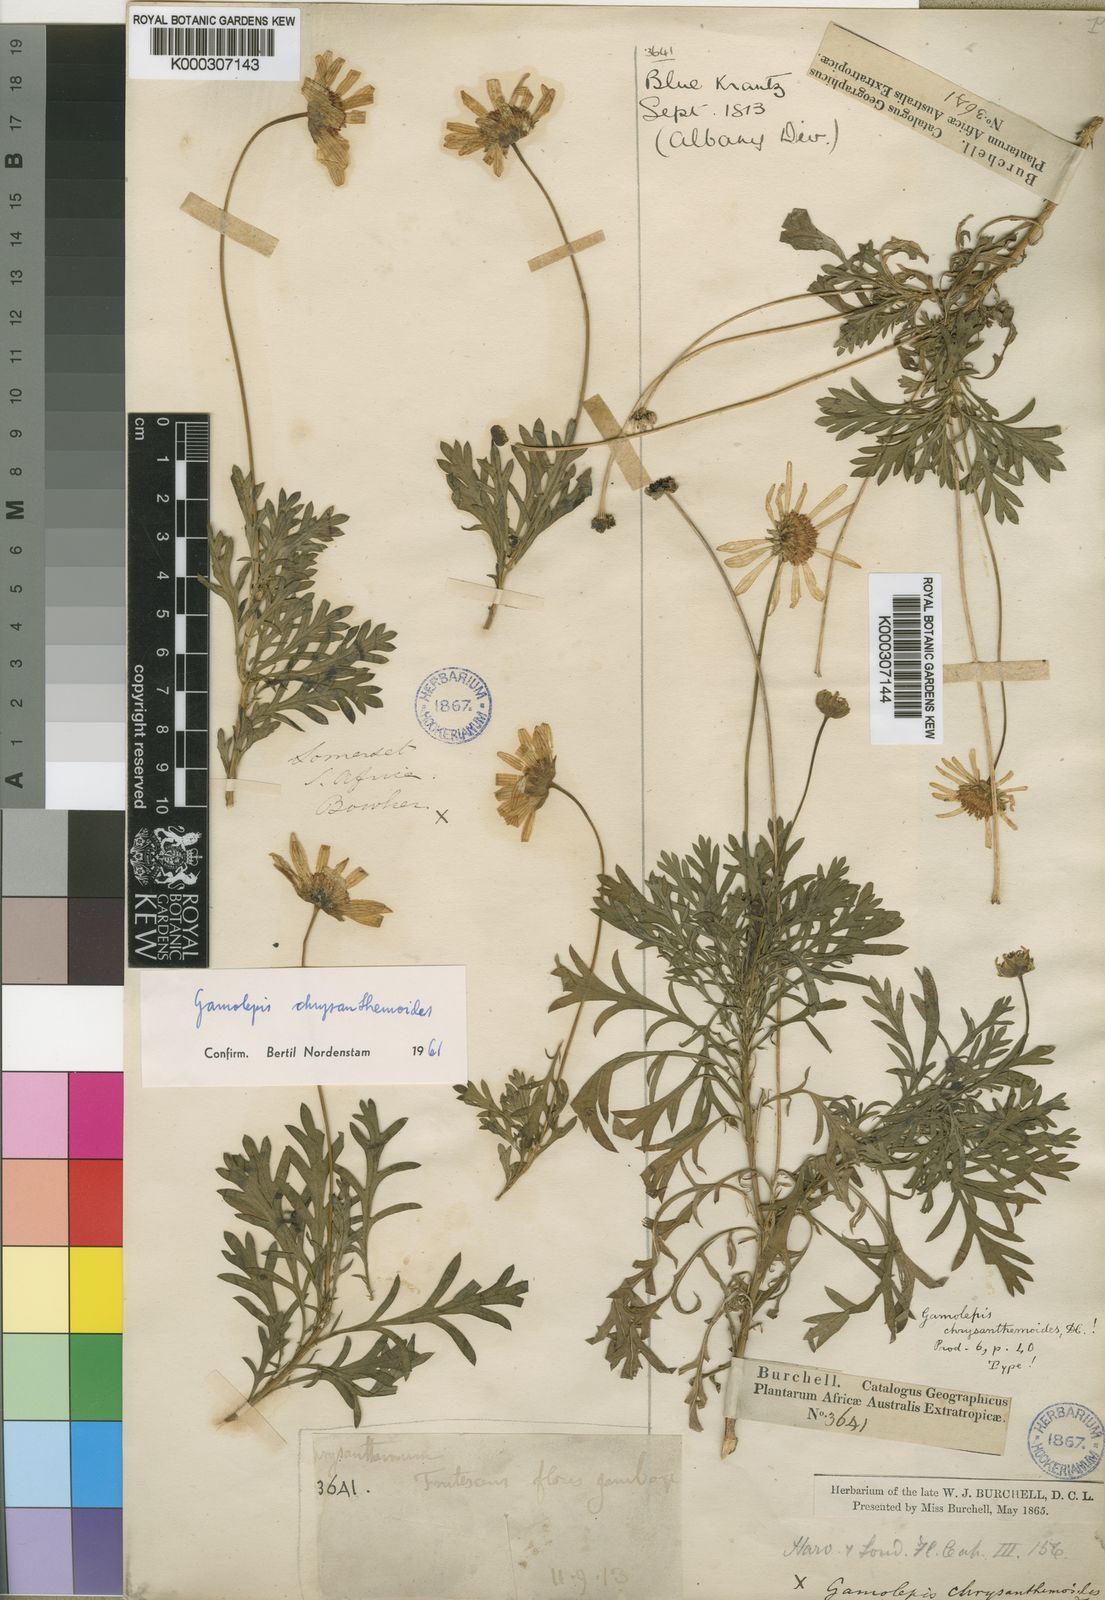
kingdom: Plantae
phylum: Tracheophyta
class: Magnoliopsida
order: Asterales
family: Asteraceae
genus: Euryops
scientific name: Euryops chrysanthemoides
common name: Bull's eye
